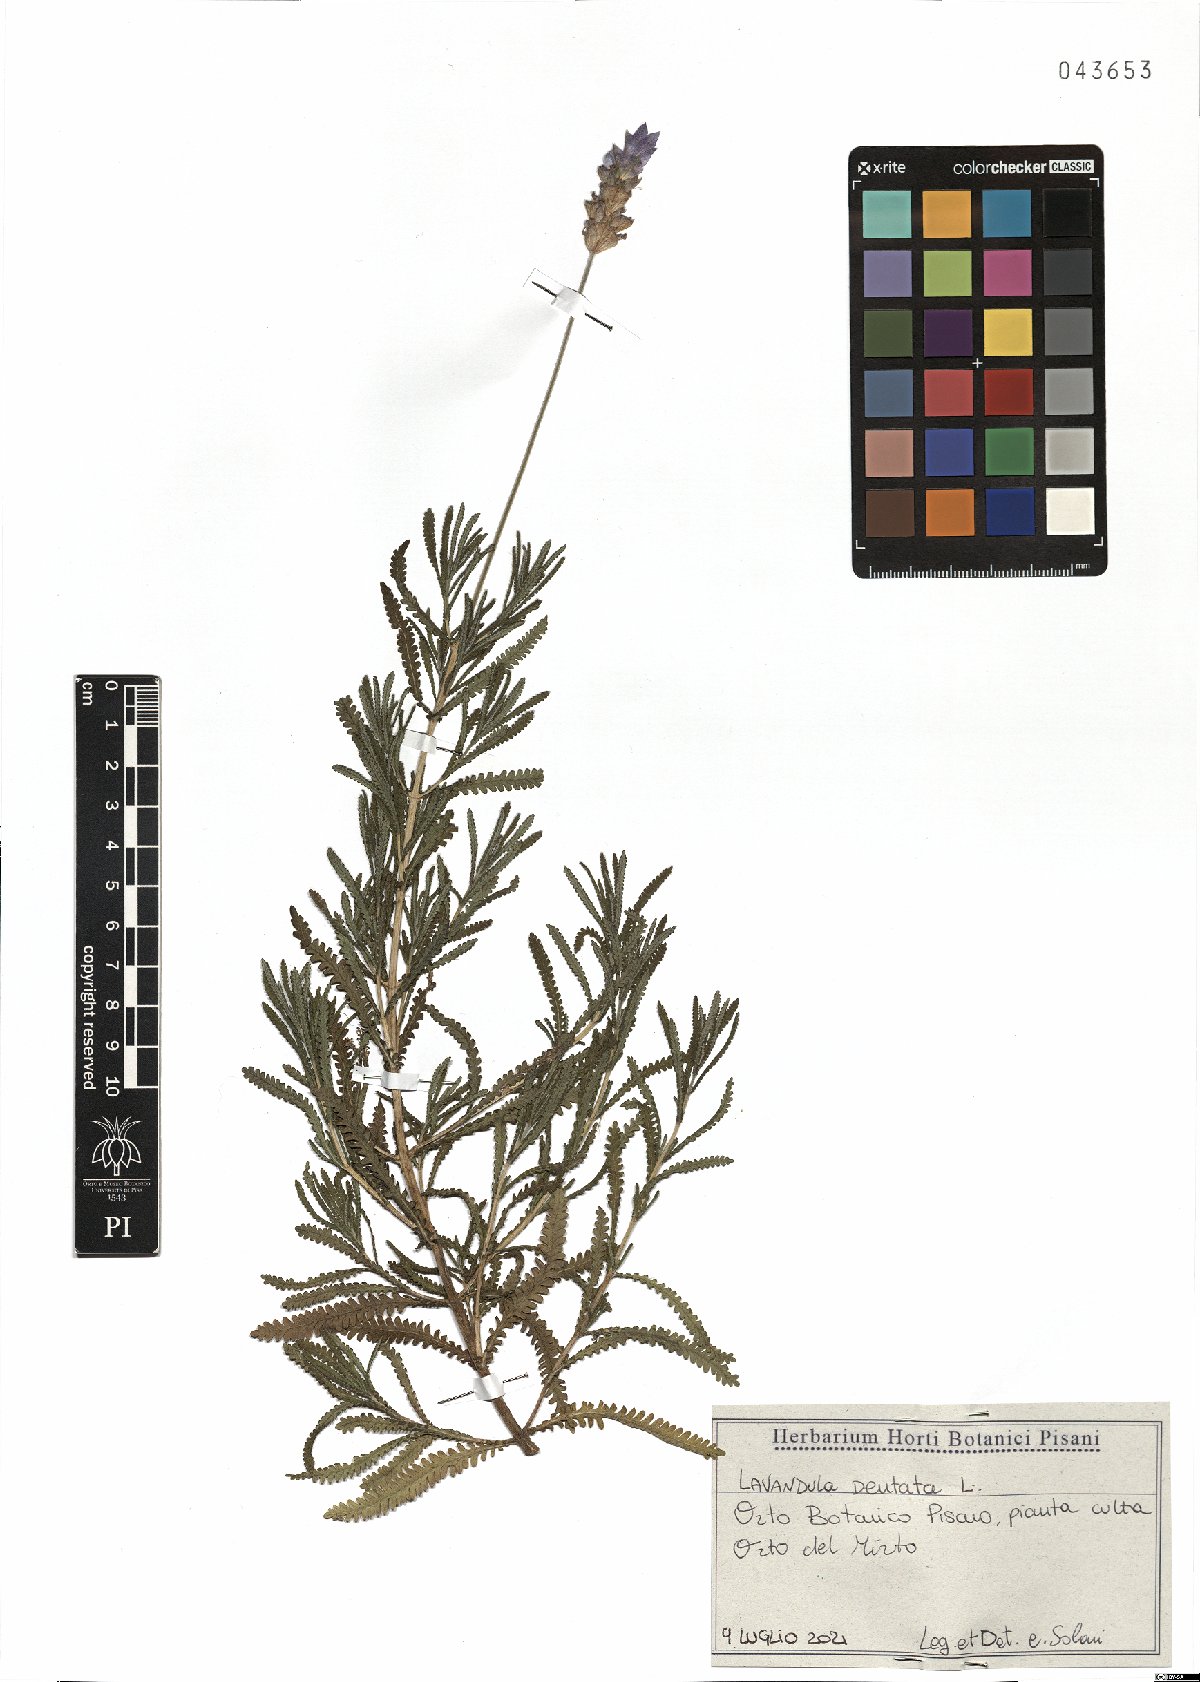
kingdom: Plantae
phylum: Tracheophyta
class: Magnoliopsida
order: Lamiales
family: Lamiaceae
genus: Lavandula
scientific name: Lavandula dentata
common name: French lavender
